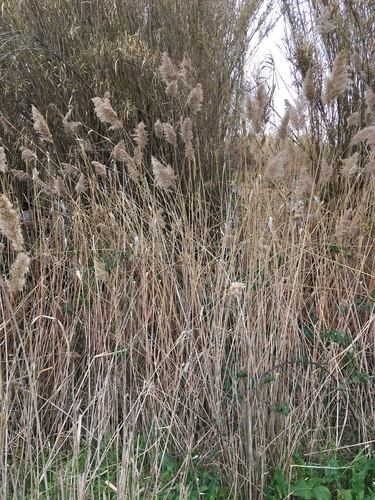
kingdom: Plantae
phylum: Tracheophyta
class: Liliopsida
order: Poales
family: Poaceae
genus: Phragmites
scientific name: Phragmites australis
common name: Common reed
